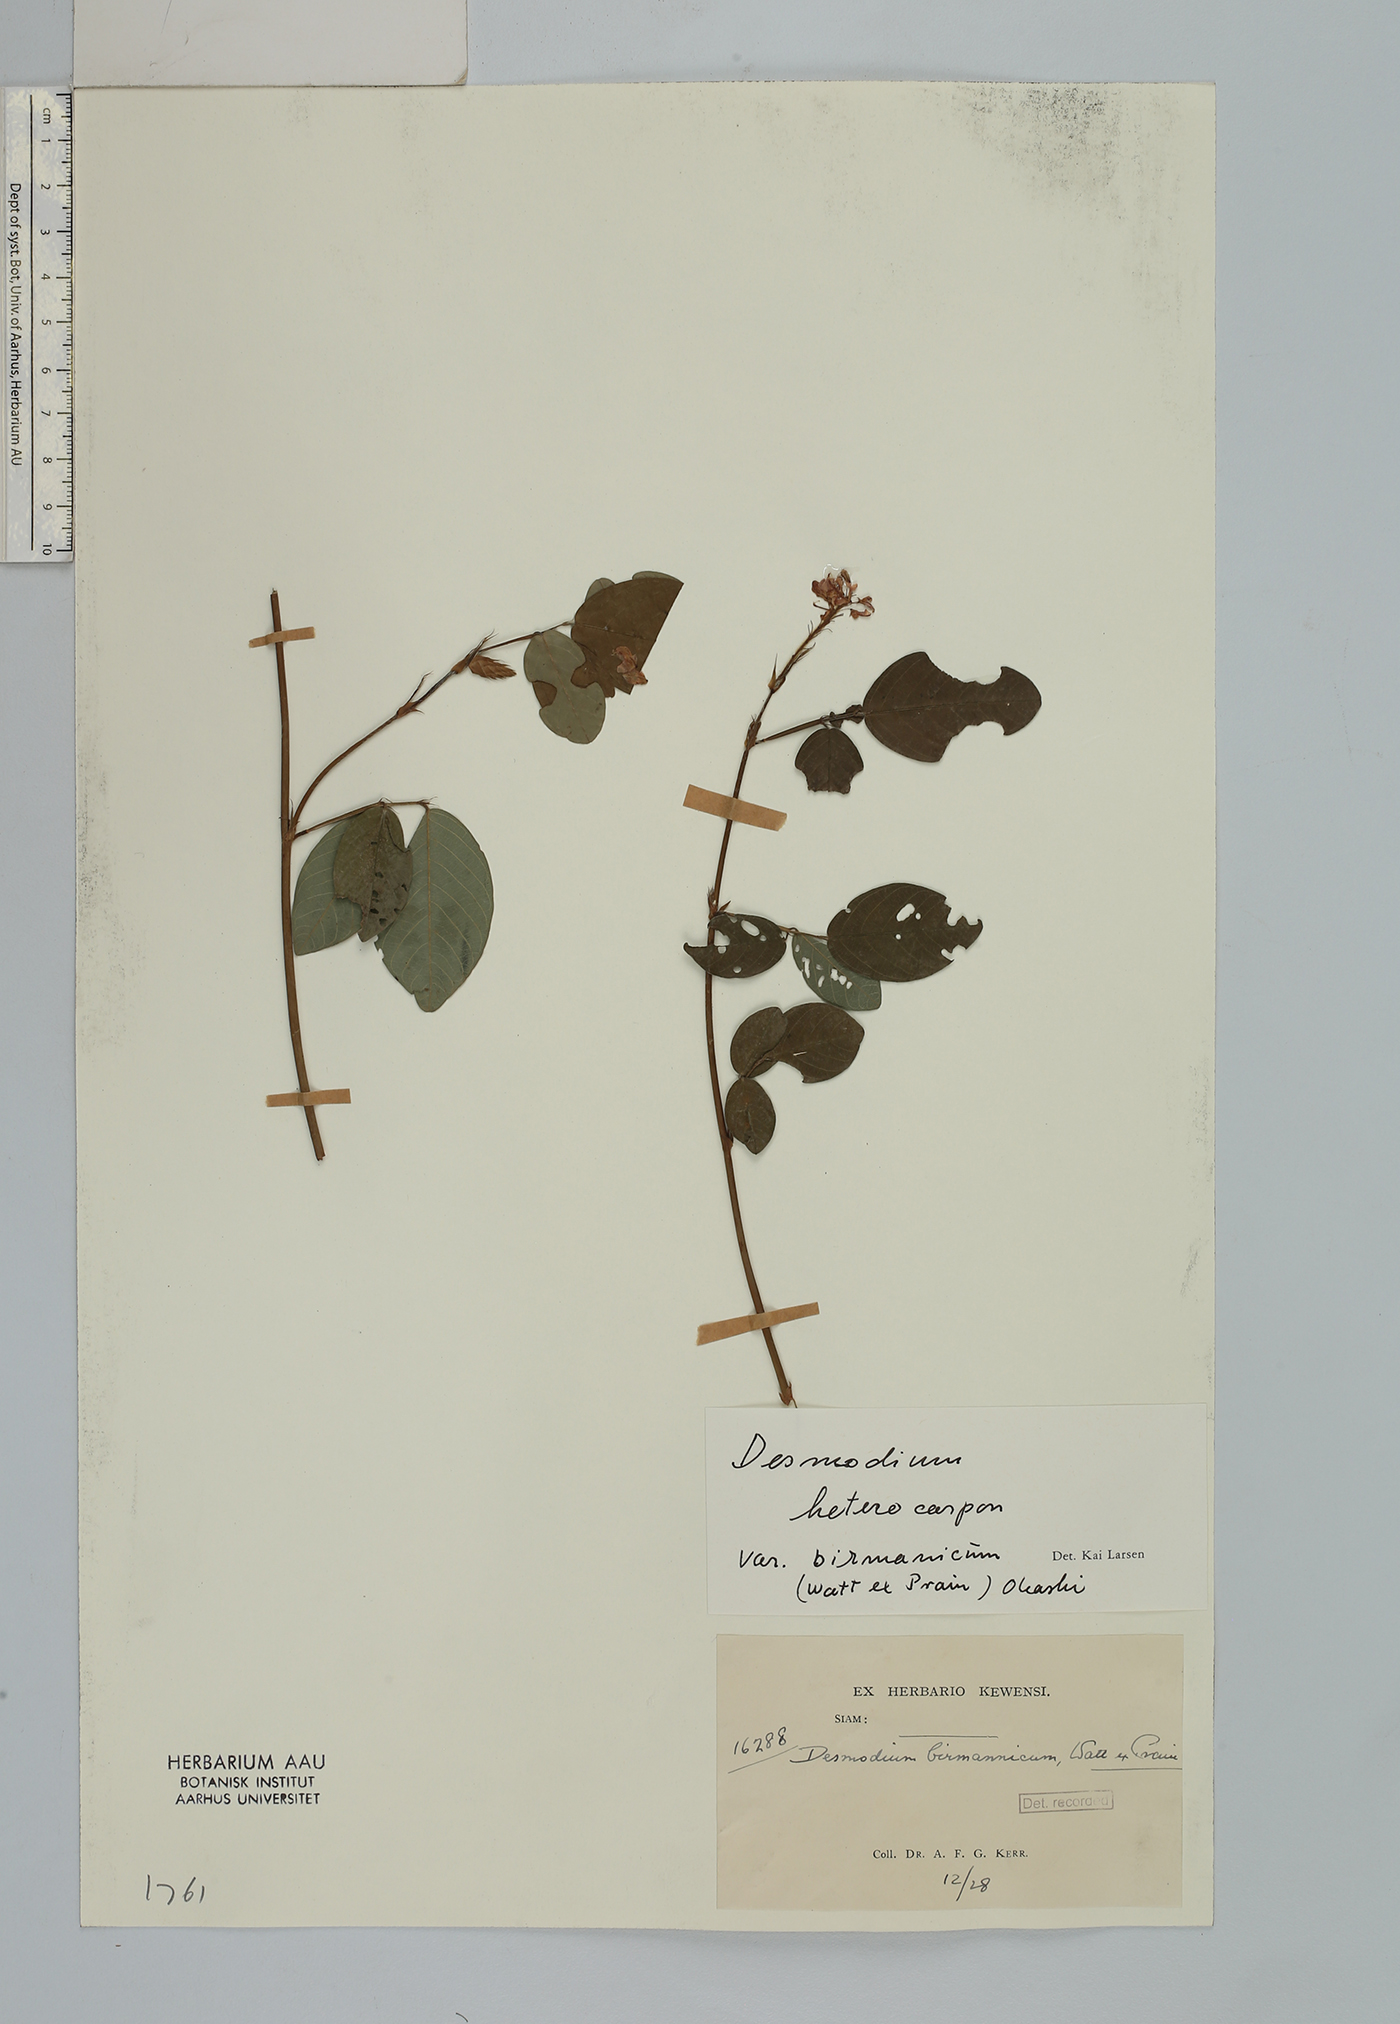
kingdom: Plantae
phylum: Tracheophyta
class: Magnoliopsida
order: Fabales
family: Fabaceae
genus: Grona
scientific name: Grona heterocarpos
